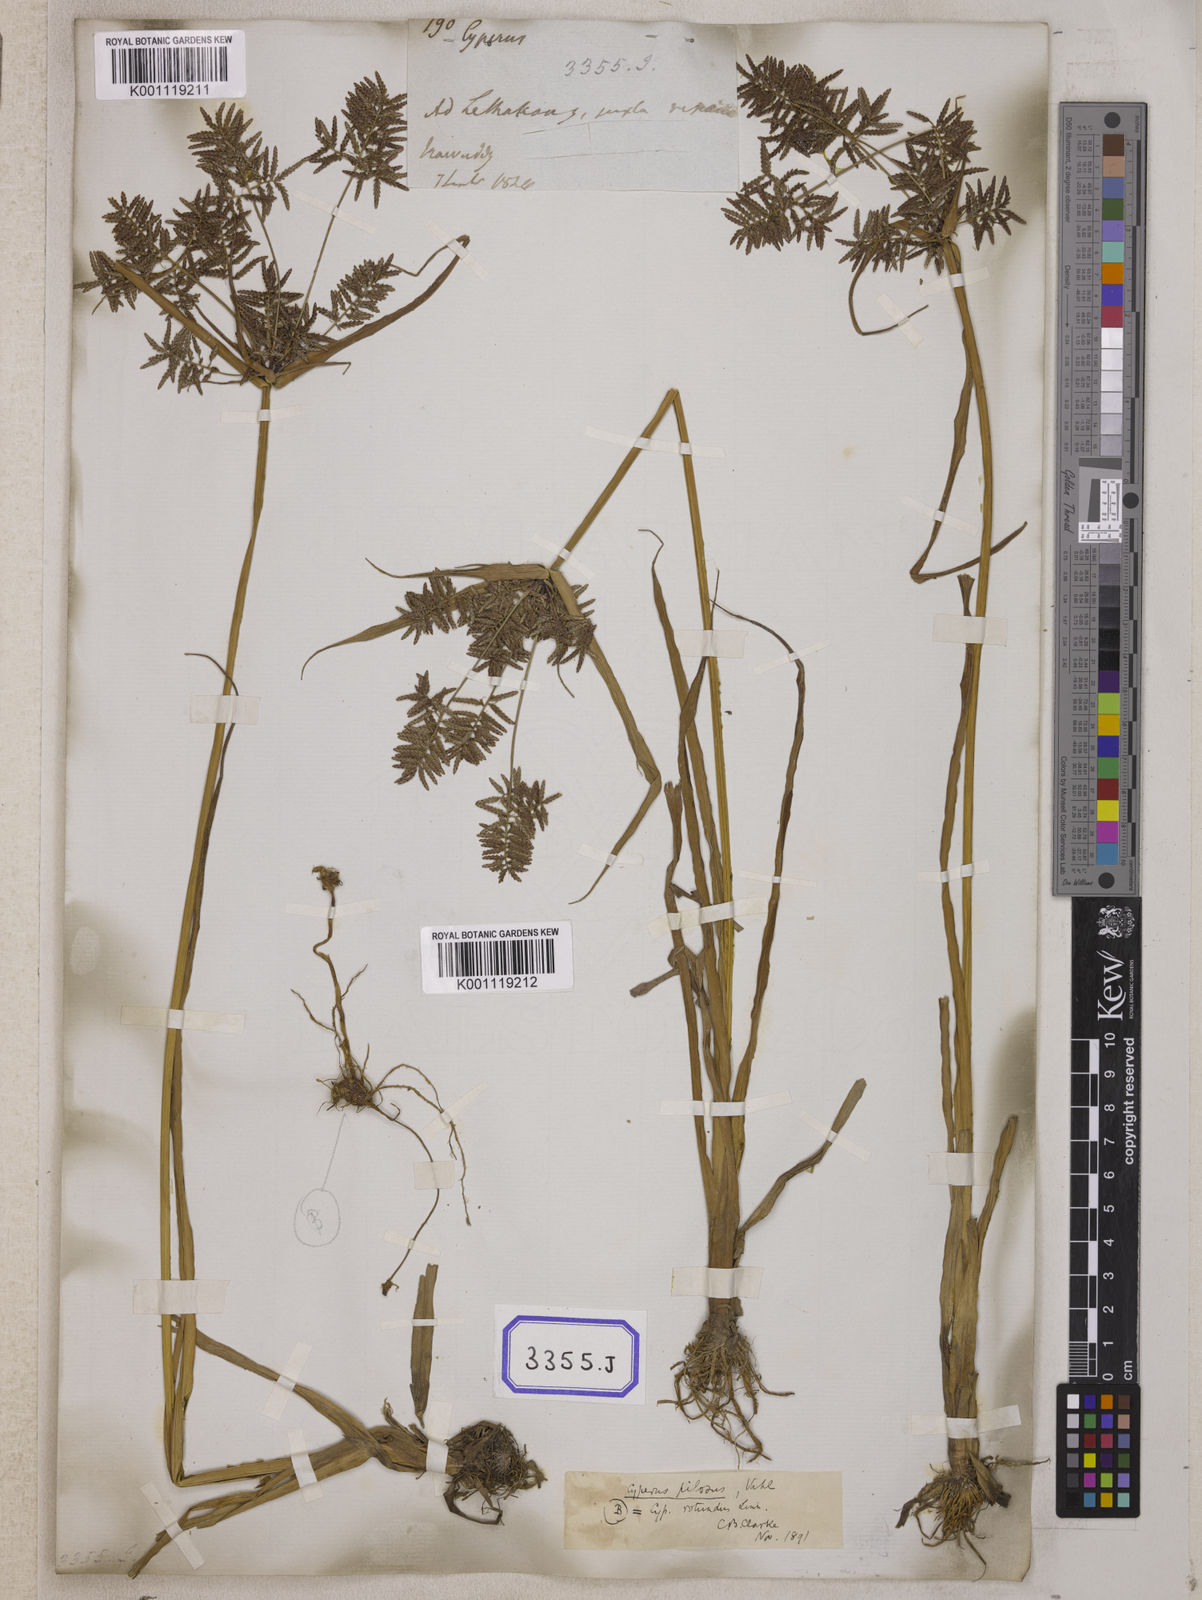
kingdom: Plantae
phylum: Tracheophyta
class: Liliopsida
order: Poales
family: Cyperaceae
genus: Cyperus
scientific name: Cyperus
